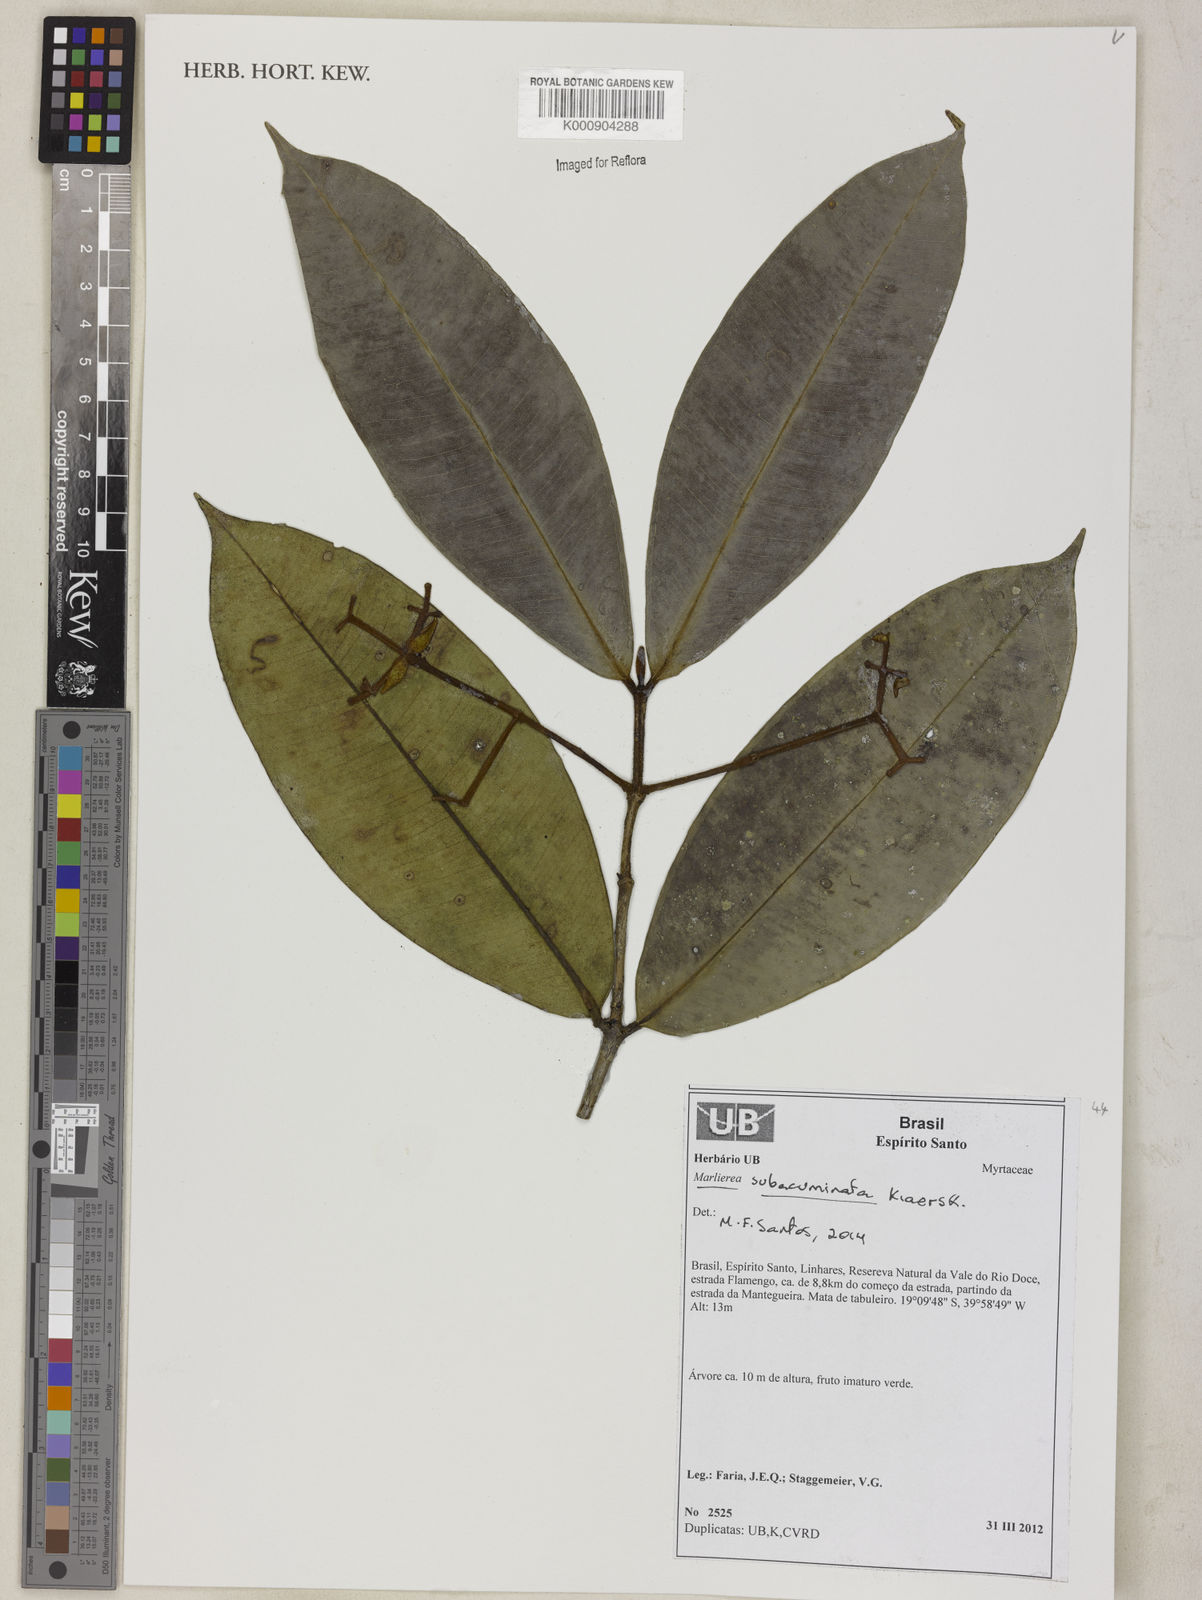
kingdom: Plantae
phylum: Tracheophyta
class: Magnoliopsida
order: Myrtales
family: Myrtaceae
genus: Myrcia
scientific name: Myrcia subacuminata
